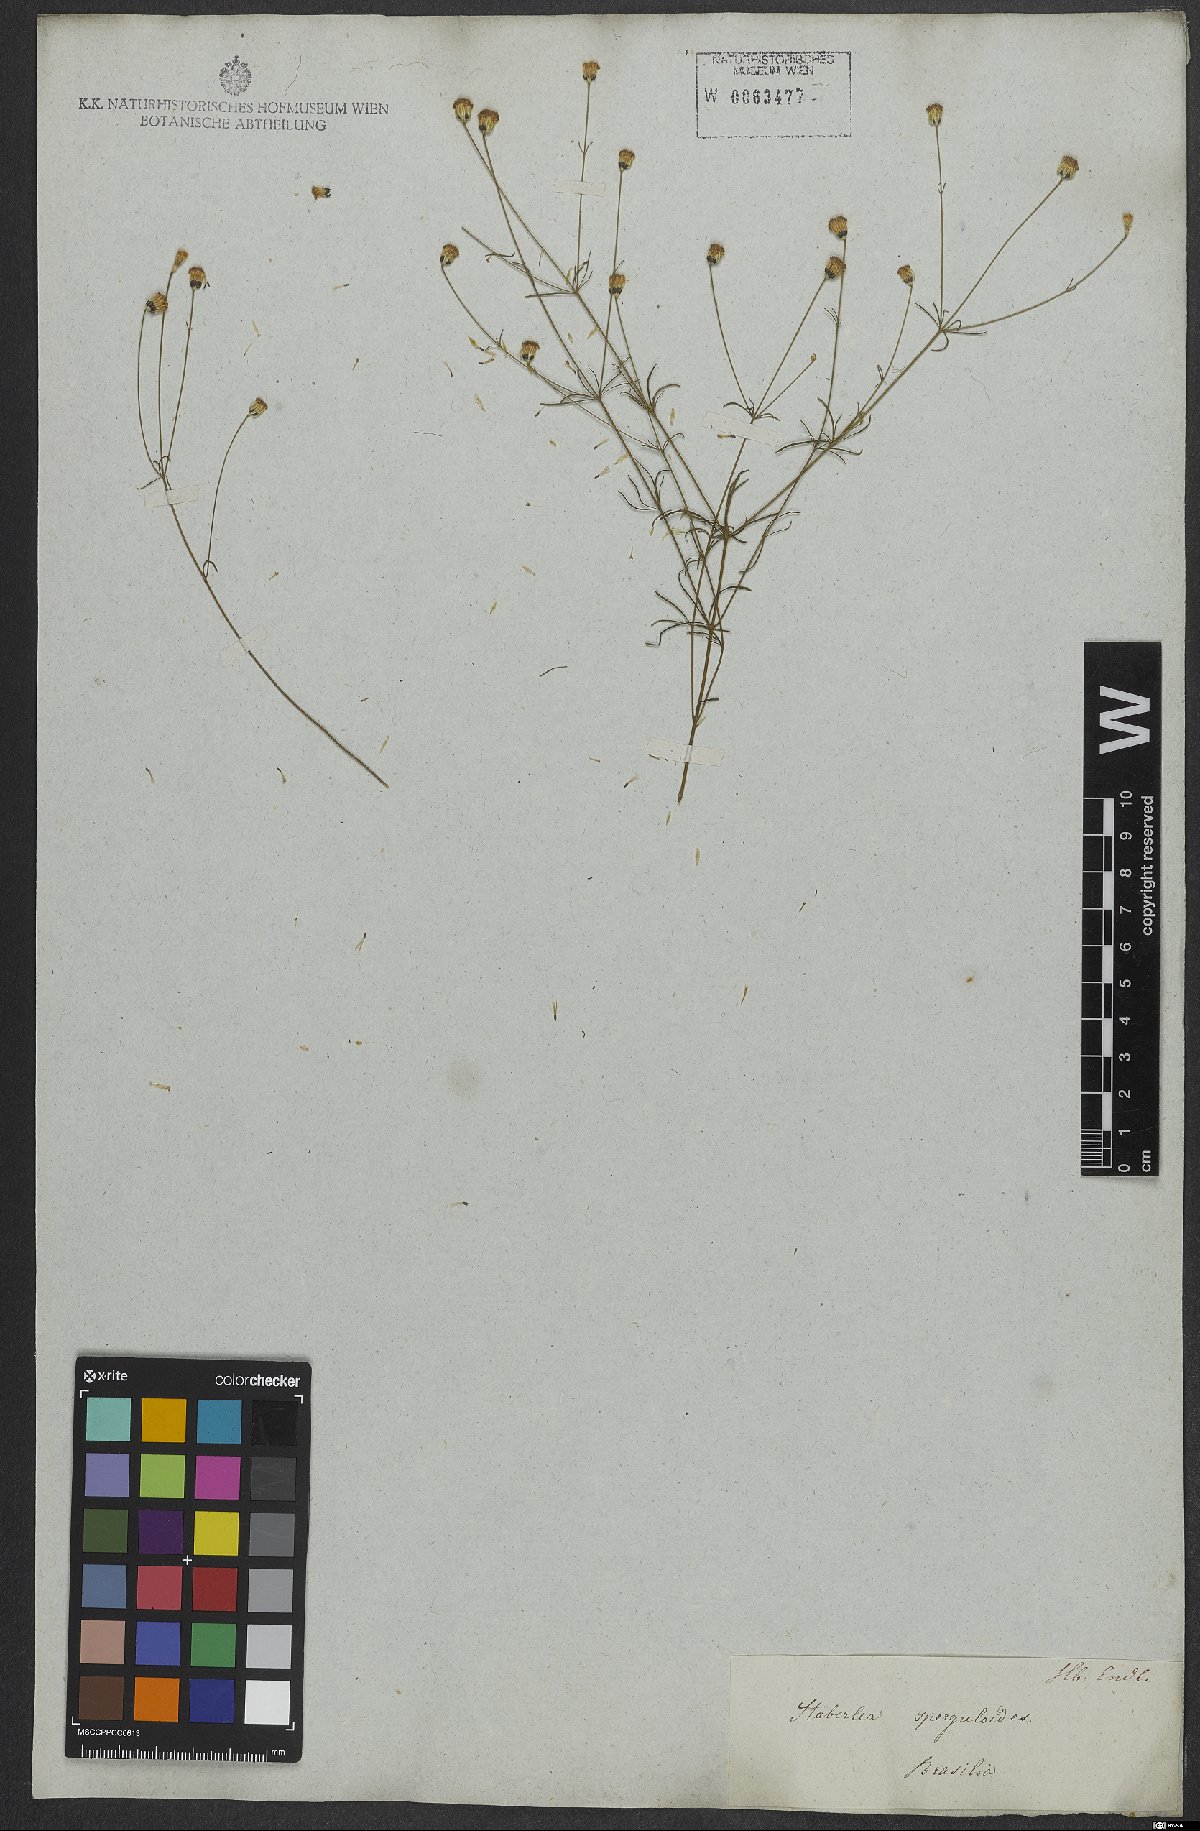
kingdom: Plantae
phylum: Tracheophyta
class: Magnoliopsida
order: Asterales
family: Asteraceae
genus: Praxelis
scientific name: Praxelis capillaris
